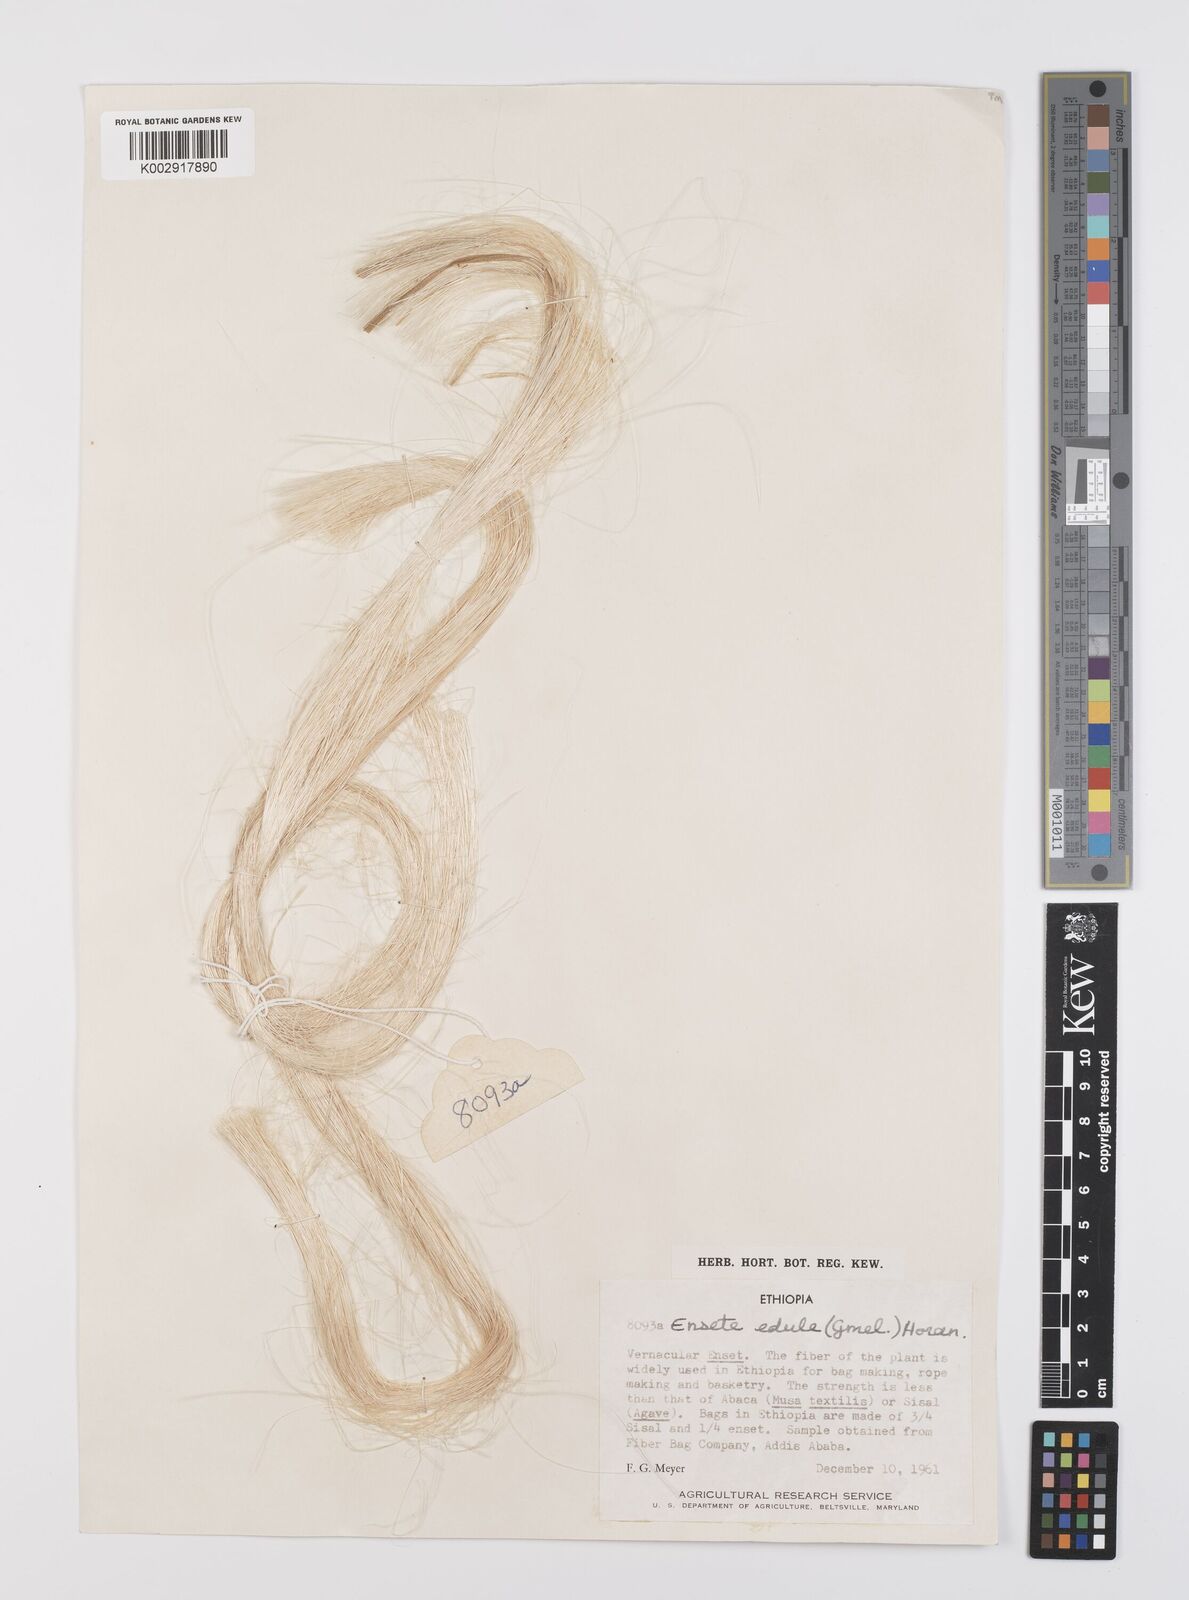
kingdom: Plantae
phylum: Tracheophyta
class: Liliopsida
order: Zingiberales
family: Musaceae
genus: Ensete
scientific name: Ensete ventricosum
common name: Abyssinian banana
